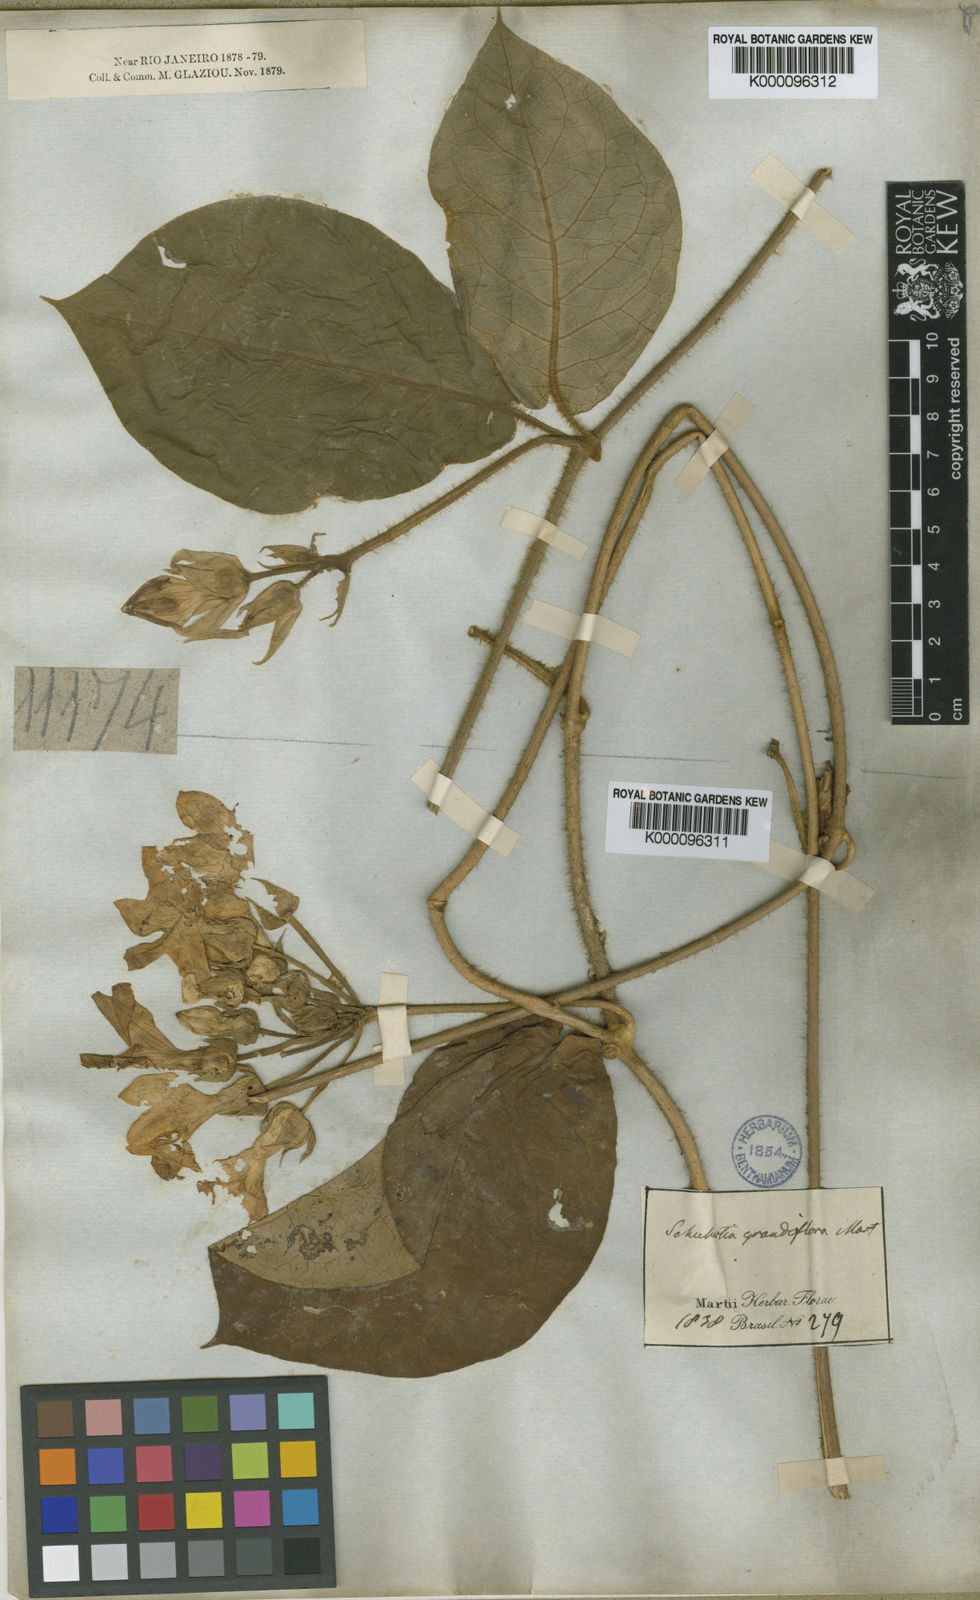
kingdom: Plantae
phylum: Tracheophyta
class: Magnoliopsida
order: Gentianales
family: Apocynaceae
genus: Macroscepis
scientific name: Macroscepis grandiflora
